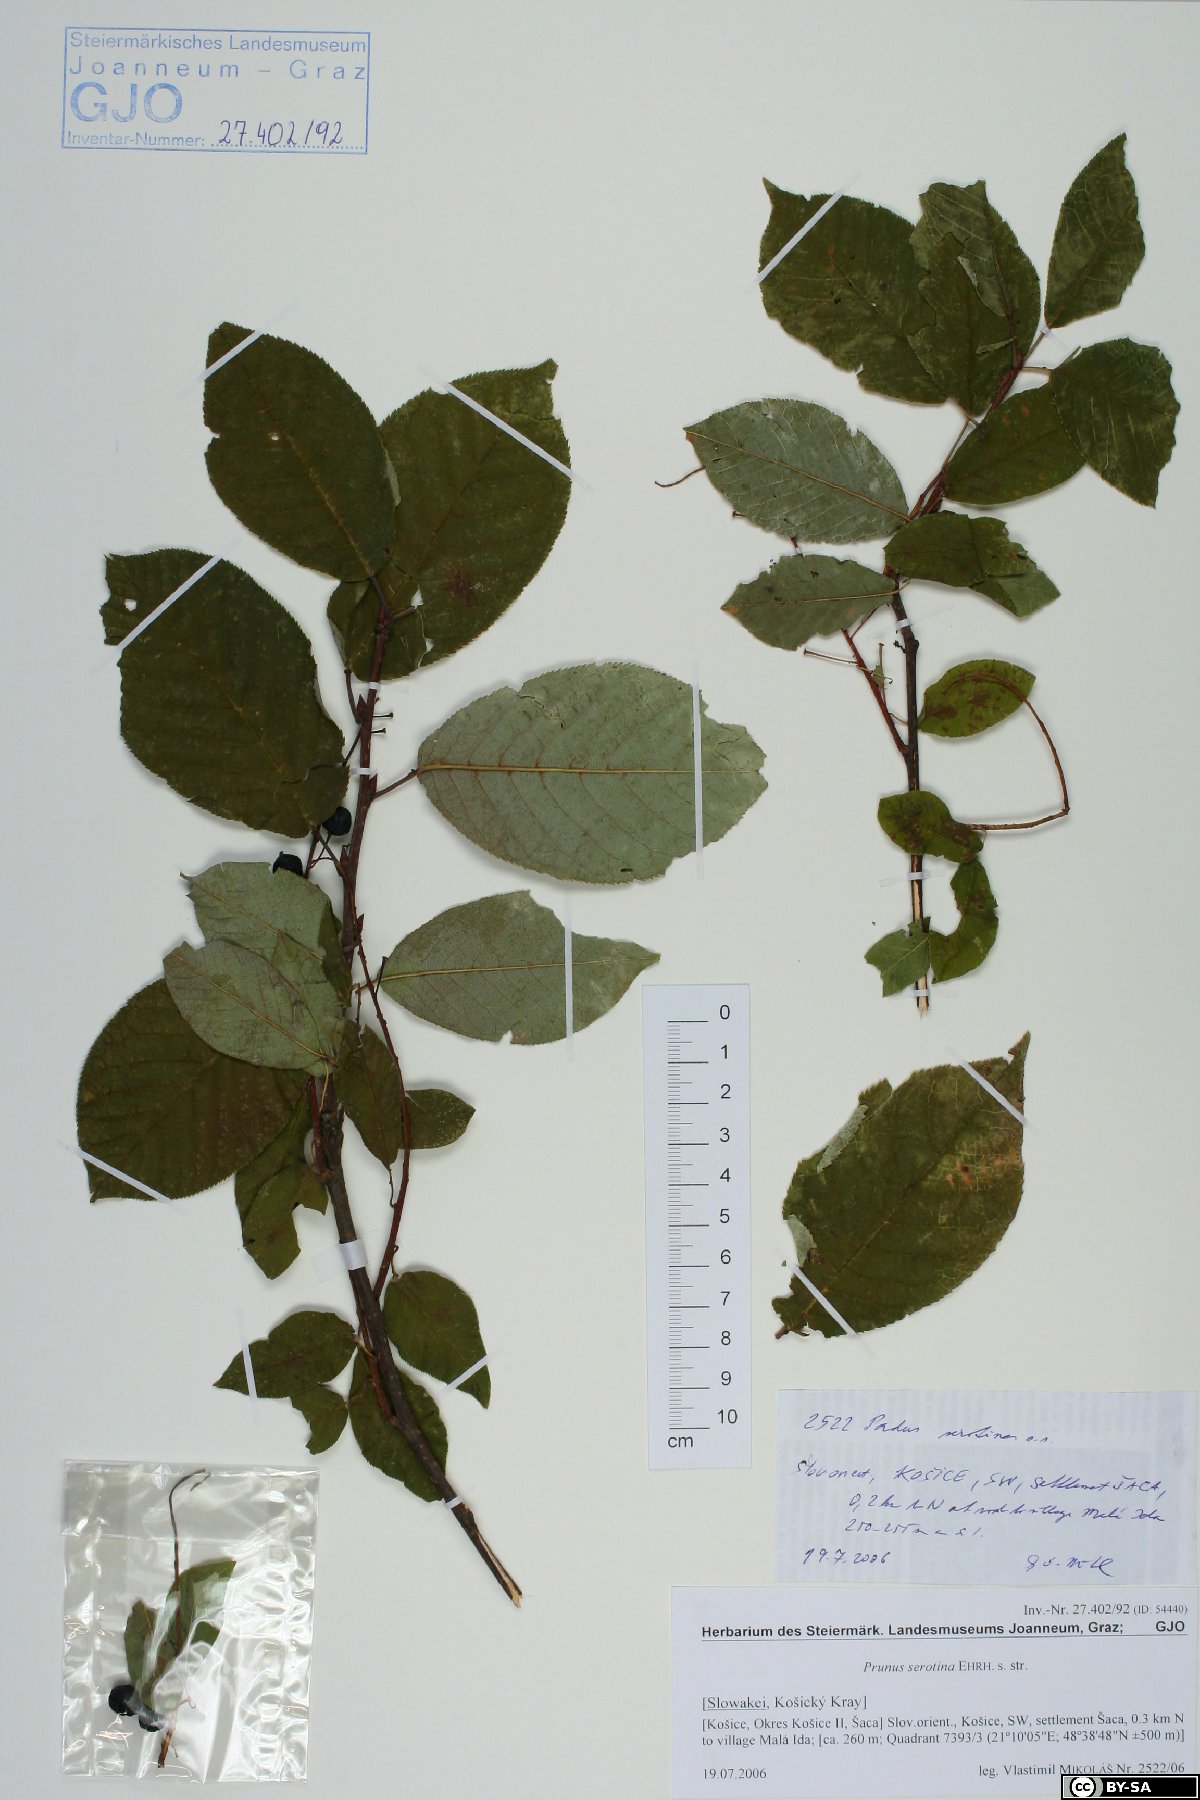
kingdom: Plantae
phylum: Tracheophyta
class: Magnoliopsida
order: Rosales
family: Rosaceae
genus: Prunus
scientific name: Prunus serotina
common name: Black cherry
